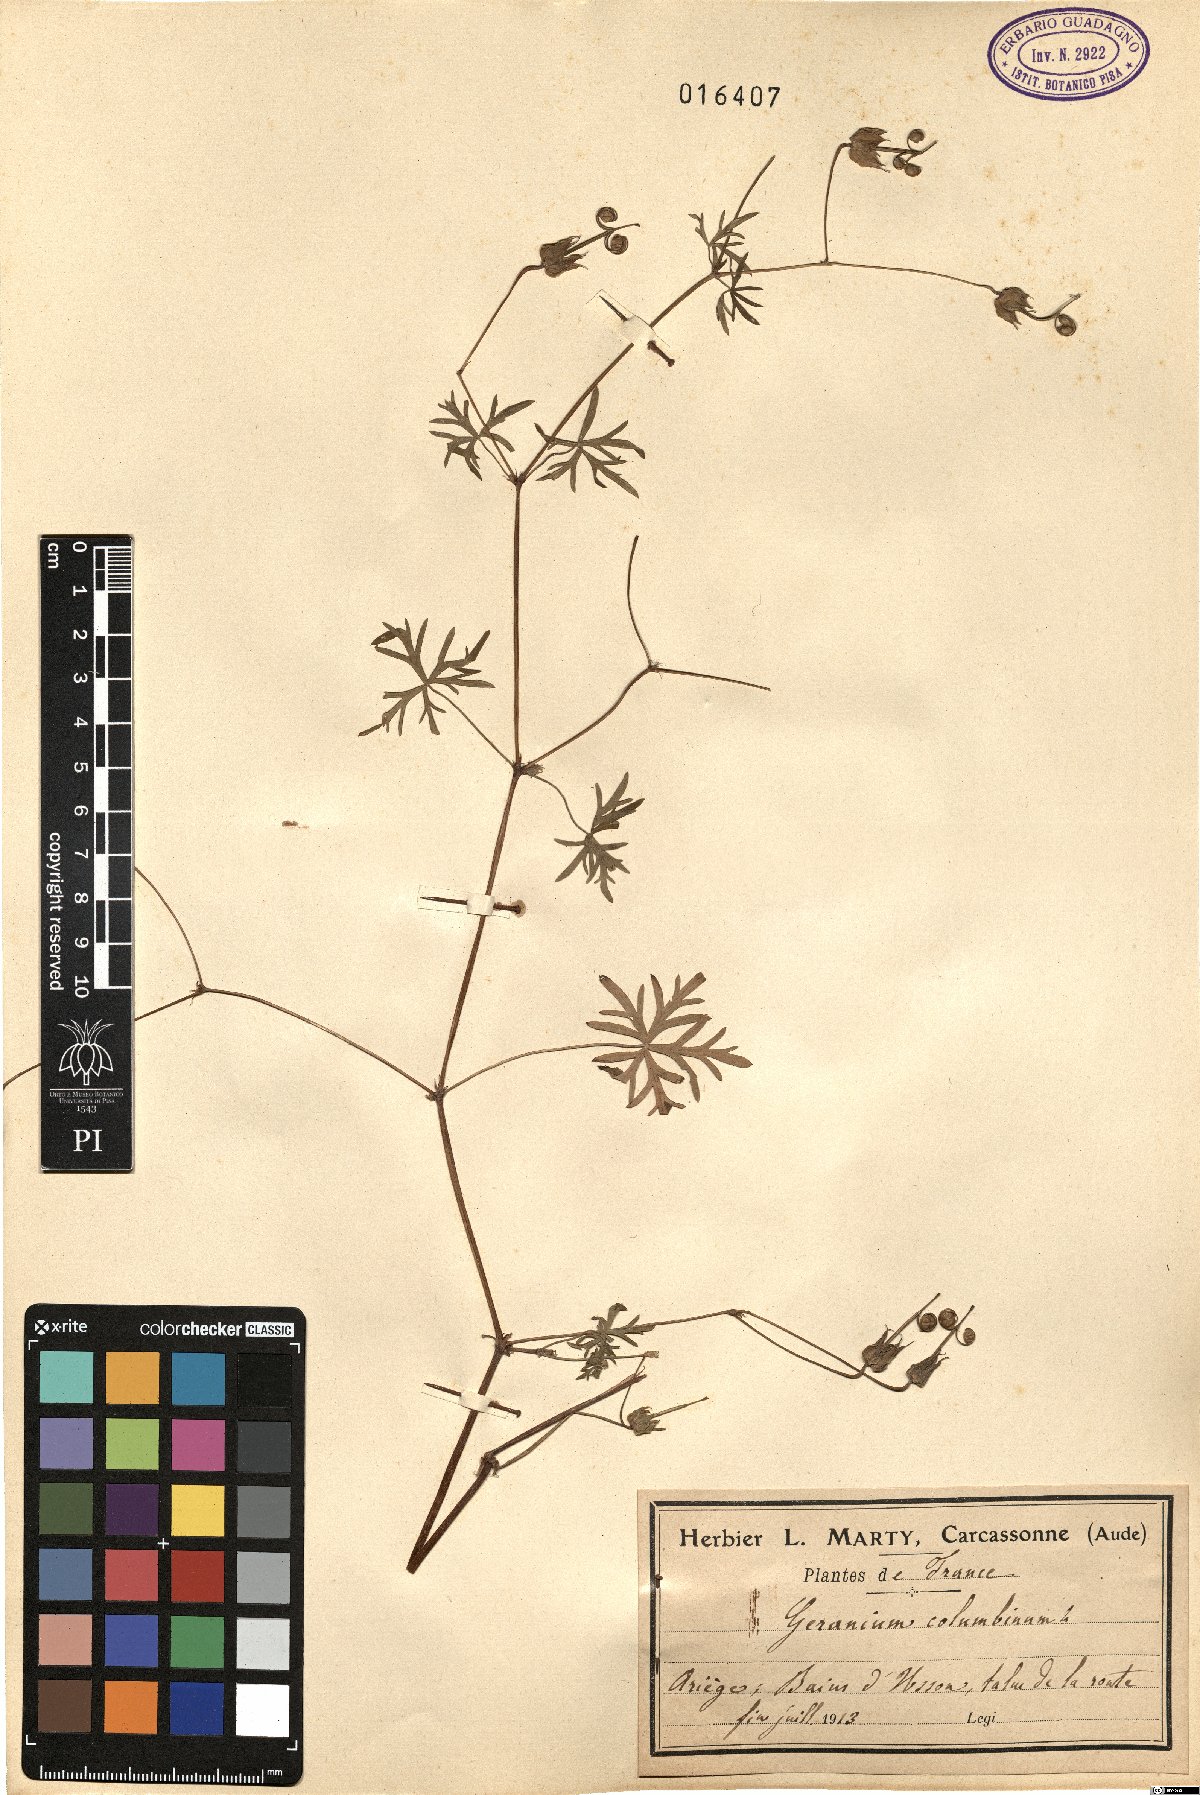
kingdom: Plantae
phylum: Tracheophyta
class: Magnoliopsida
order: Geraniales
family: Geraniaceae
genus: Geranium
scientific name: Geranium columbinum
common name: Long-stalked crane's-bill
